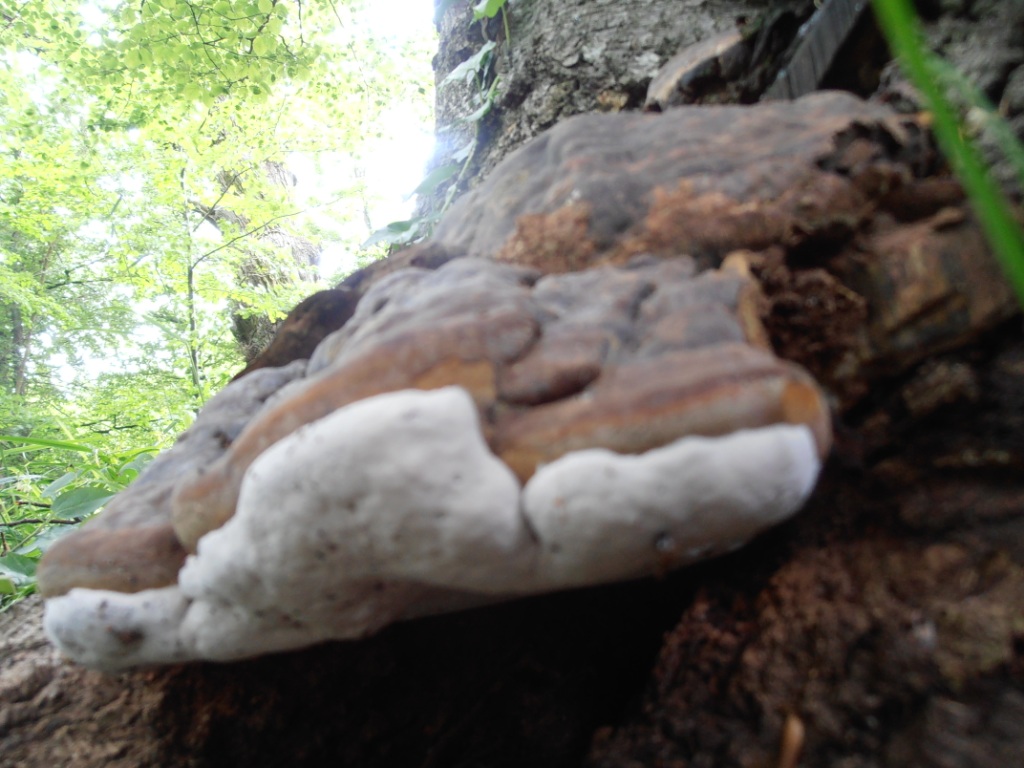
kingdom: Fungi
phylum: Basidiomycota
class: Agaricomycetes
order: Polyporales
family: Polyporaceae
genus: Ganoderma
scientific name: Ganoderma pfeifferi
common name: kobberrød lakporesvamp
